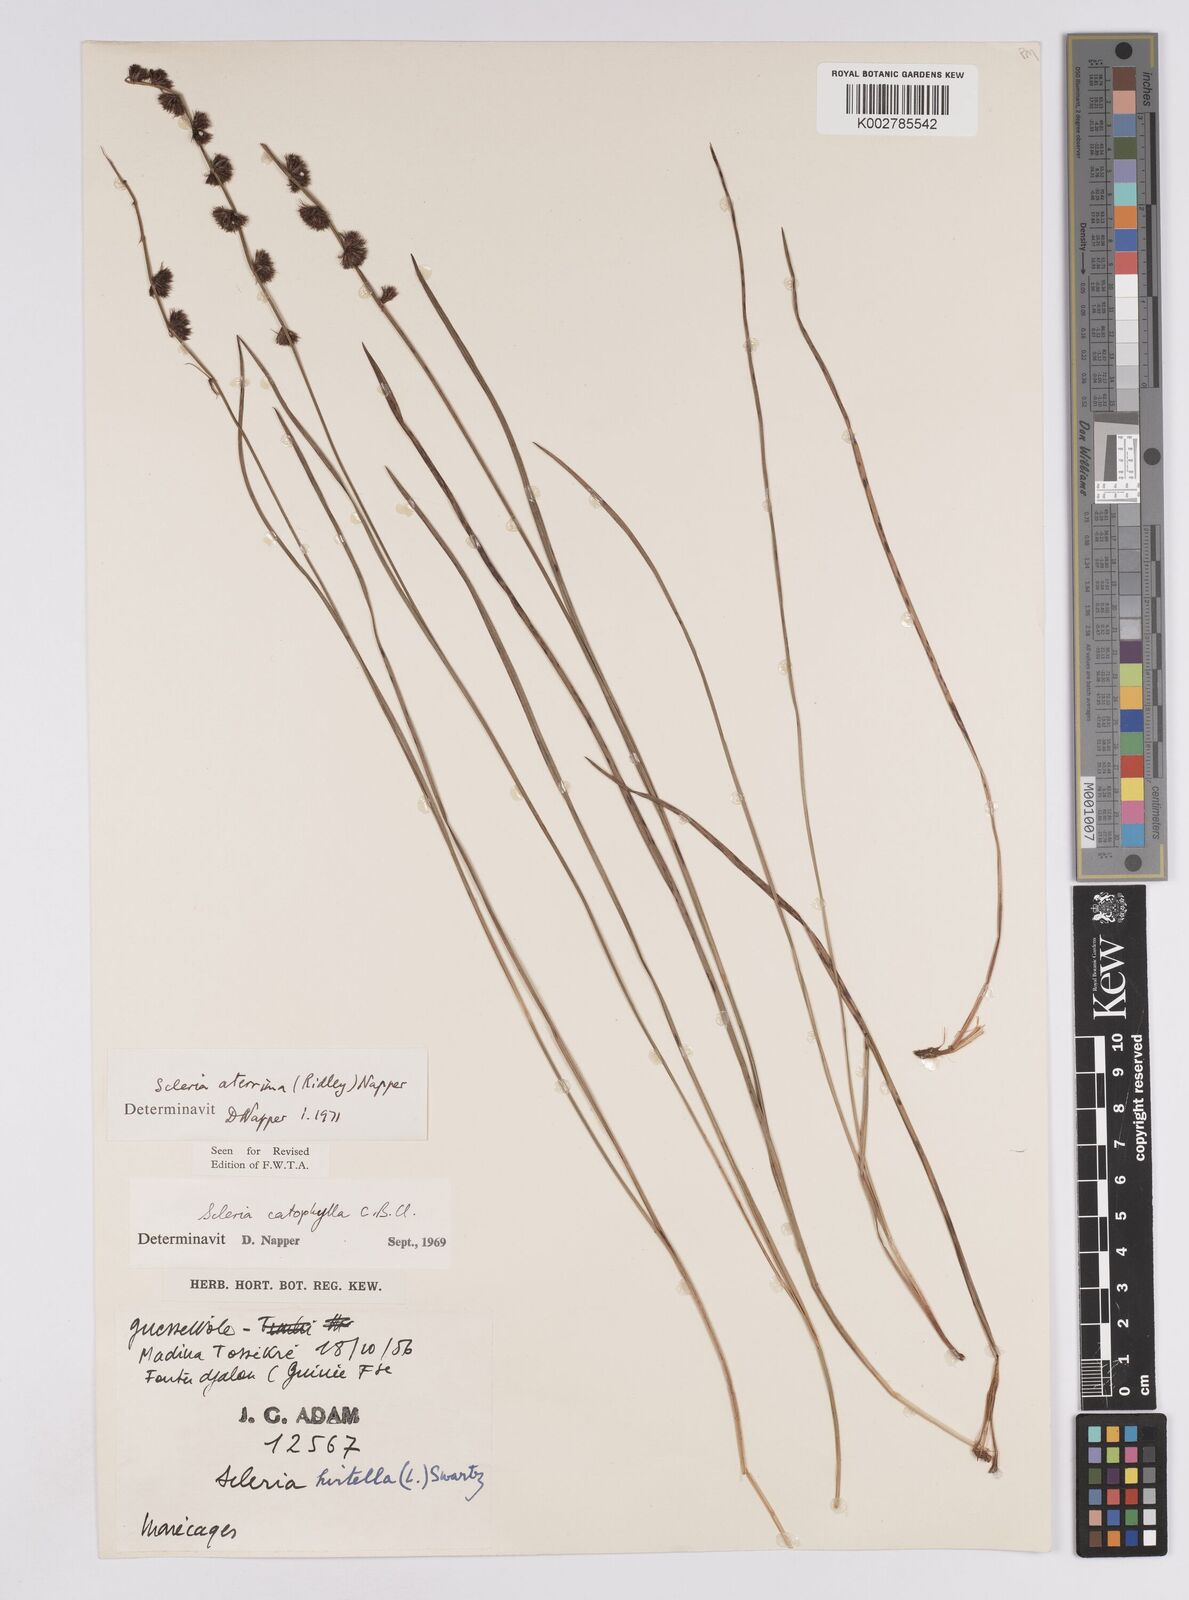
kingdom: Plantae
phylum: Tracheophyta
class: Liliopsida
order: Poales
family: Cyperaceae
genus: Scleria
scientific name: Scleria catophylla
